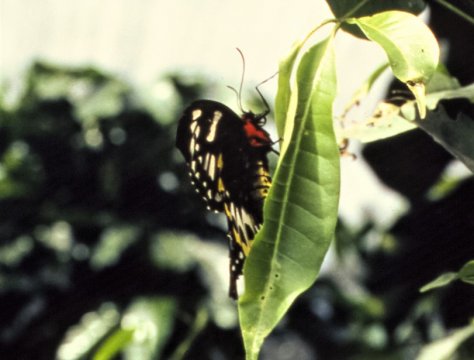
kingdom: Animalia
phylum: Arthropoda
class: Insecta
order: Lepidoptera
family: Papilionidae
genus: Ornithoptera
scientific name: Ornithoptera euphorion
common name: Cairns Birdwing
